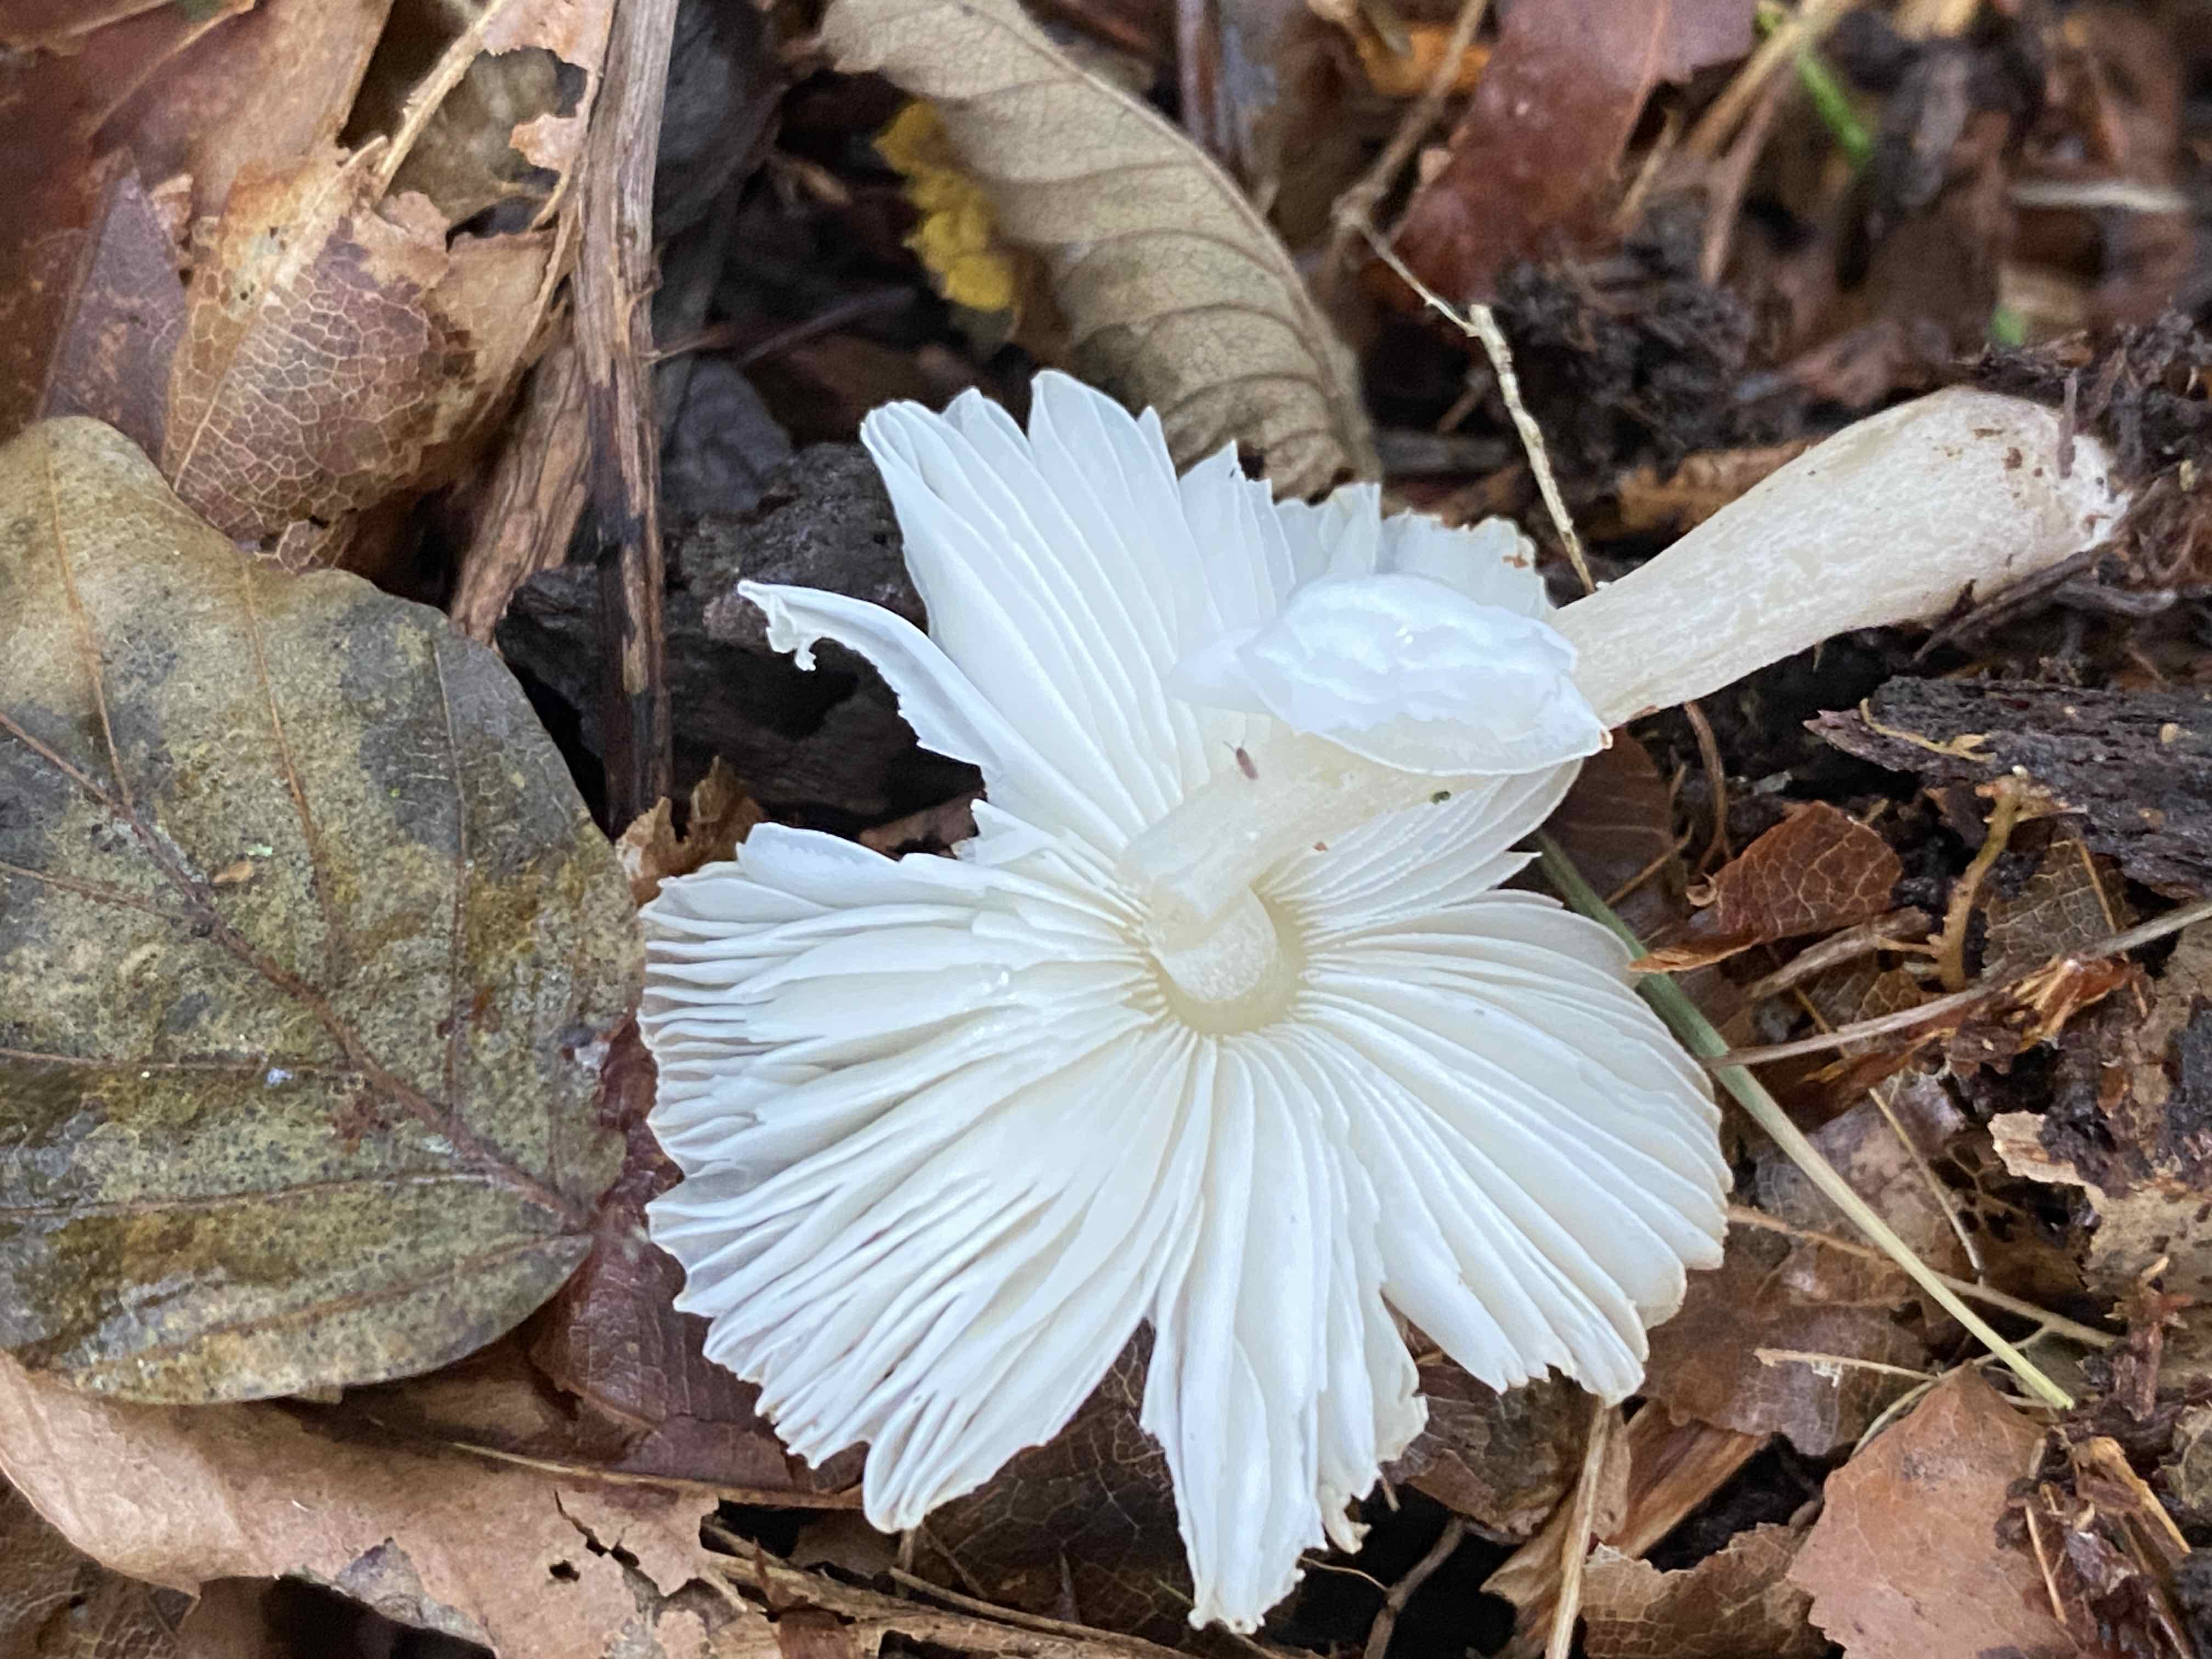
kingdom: Fungi
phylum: Basidiomycota
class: Agaricomycetes
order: Agaricales
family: Agaricaceae
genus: Leucocoprinus
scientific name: Leucocoprinus
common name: silkehat
